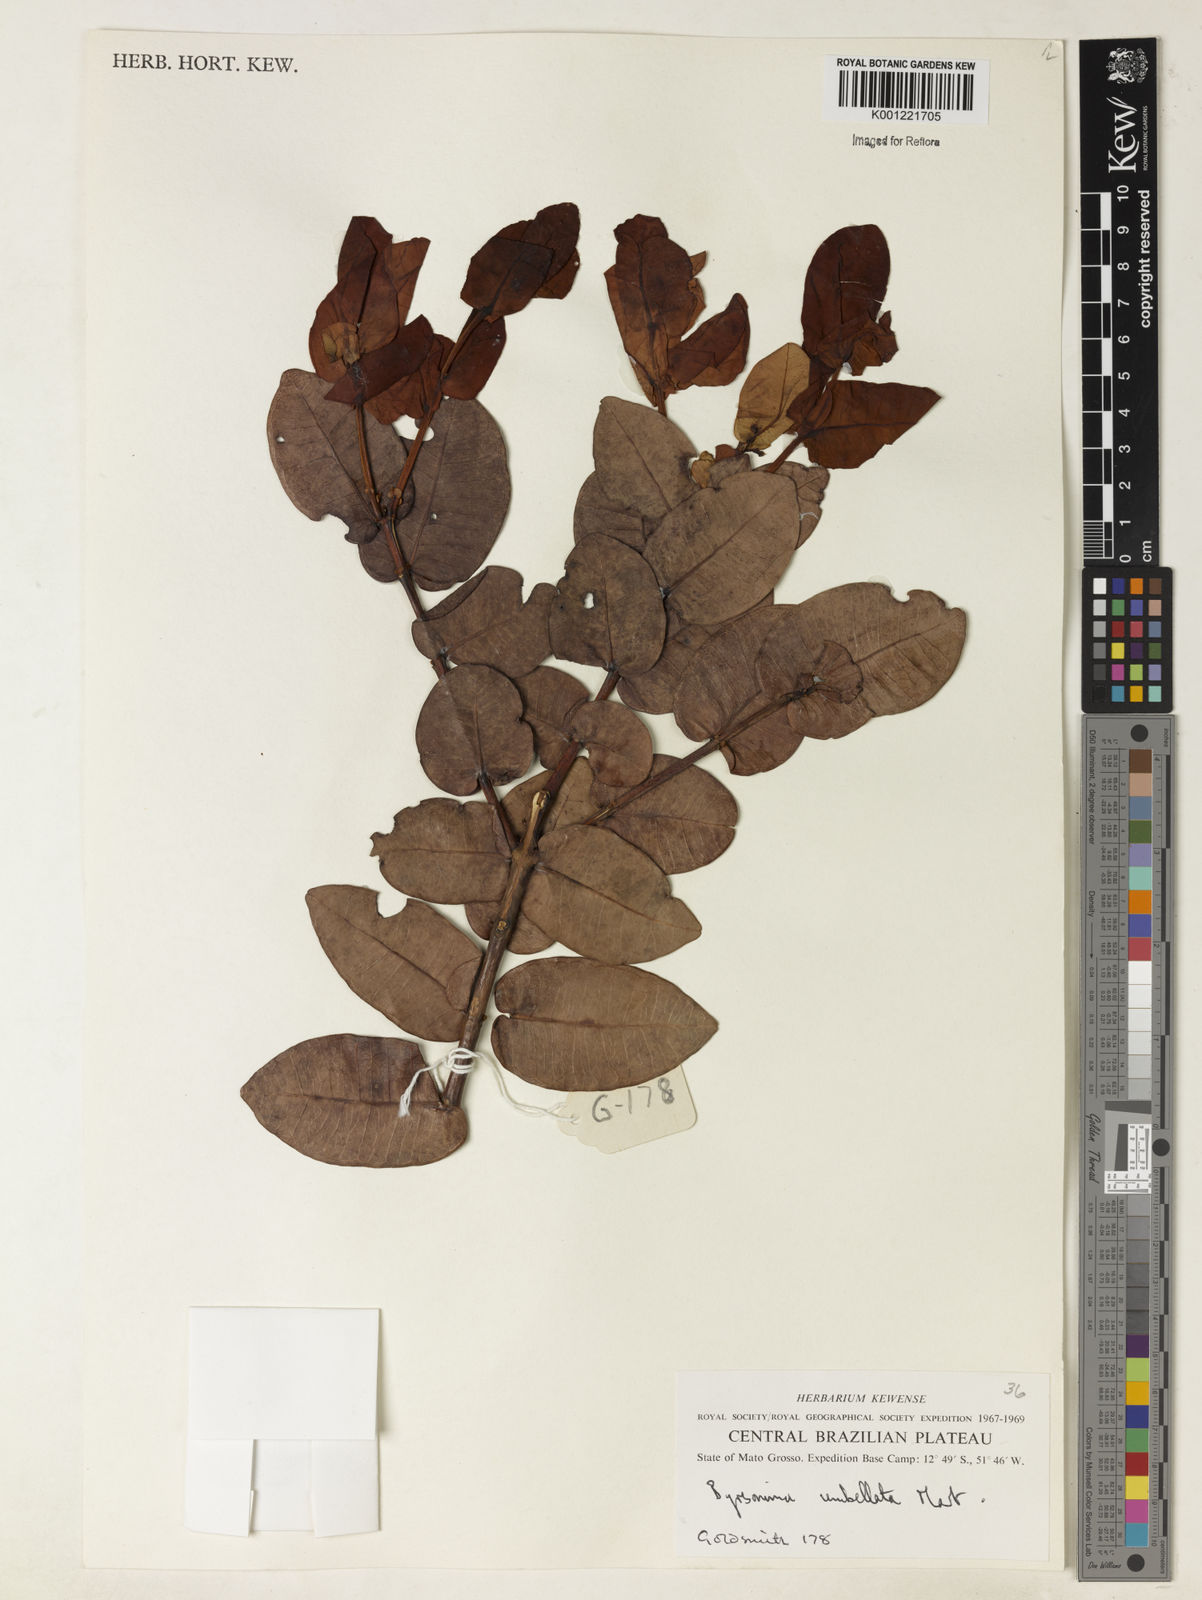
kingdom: Plantae
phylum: Tracheophyta
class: Magnoliopsida
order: Malpighiales
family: Malpighiaceae
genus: Byrsonima
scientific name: Byrsonima umbellata
